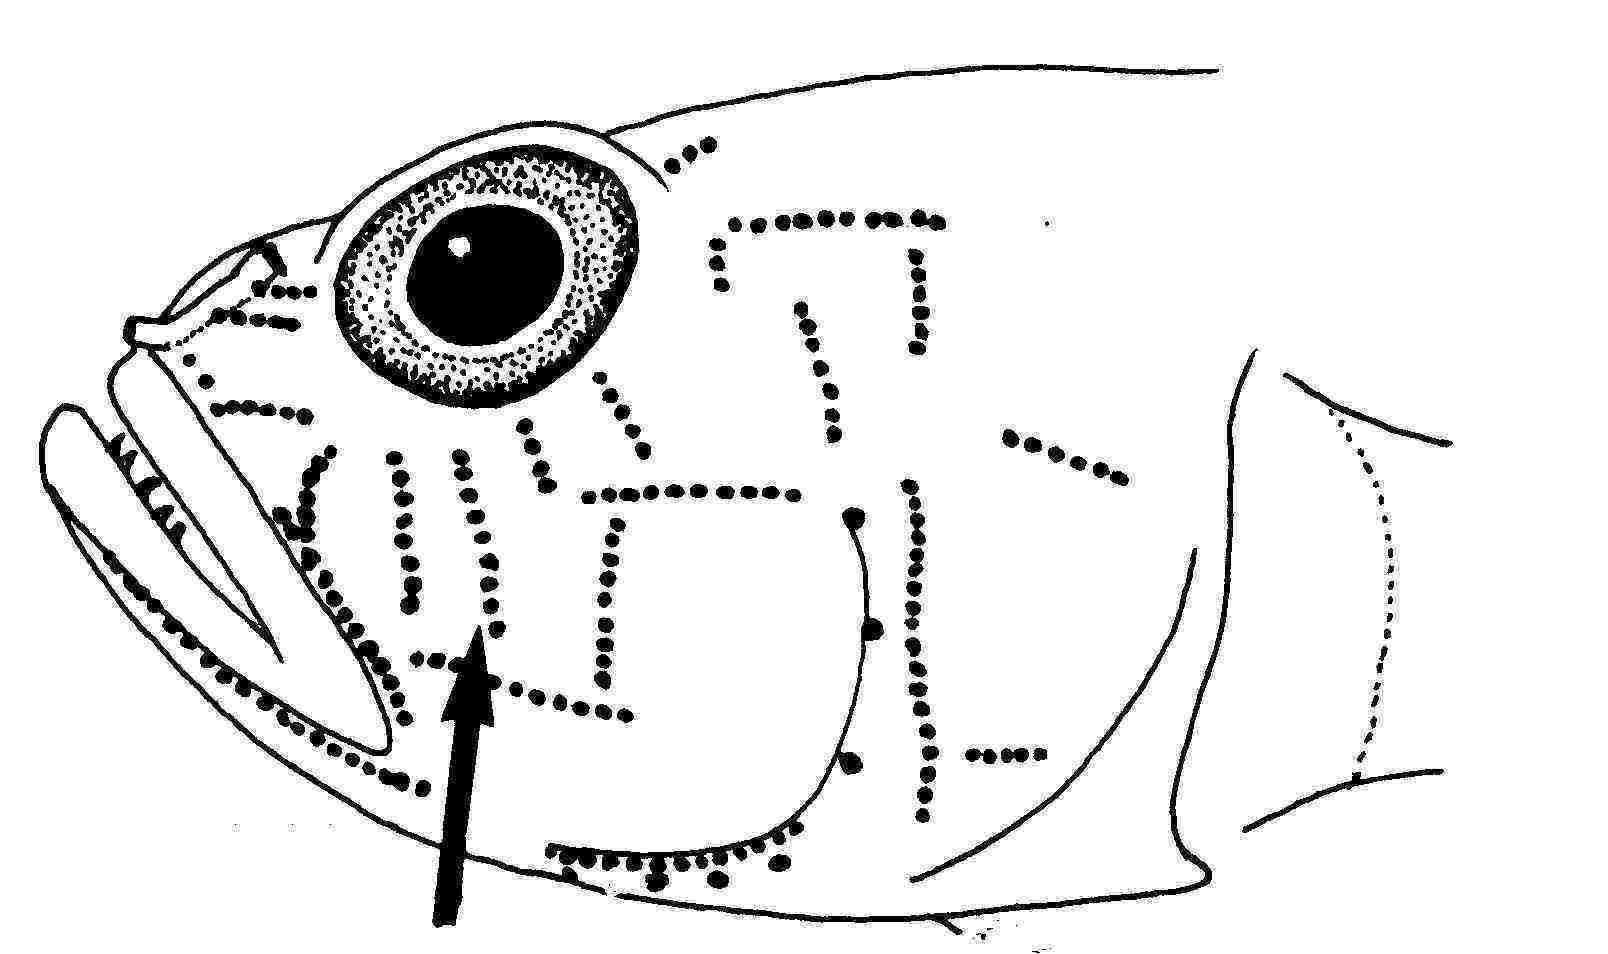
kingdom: Animalia
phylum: Chordata
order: Perciformes
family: Gobiidae
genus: Priolepis
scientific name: Priolepis randalli
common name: Randall's goby
